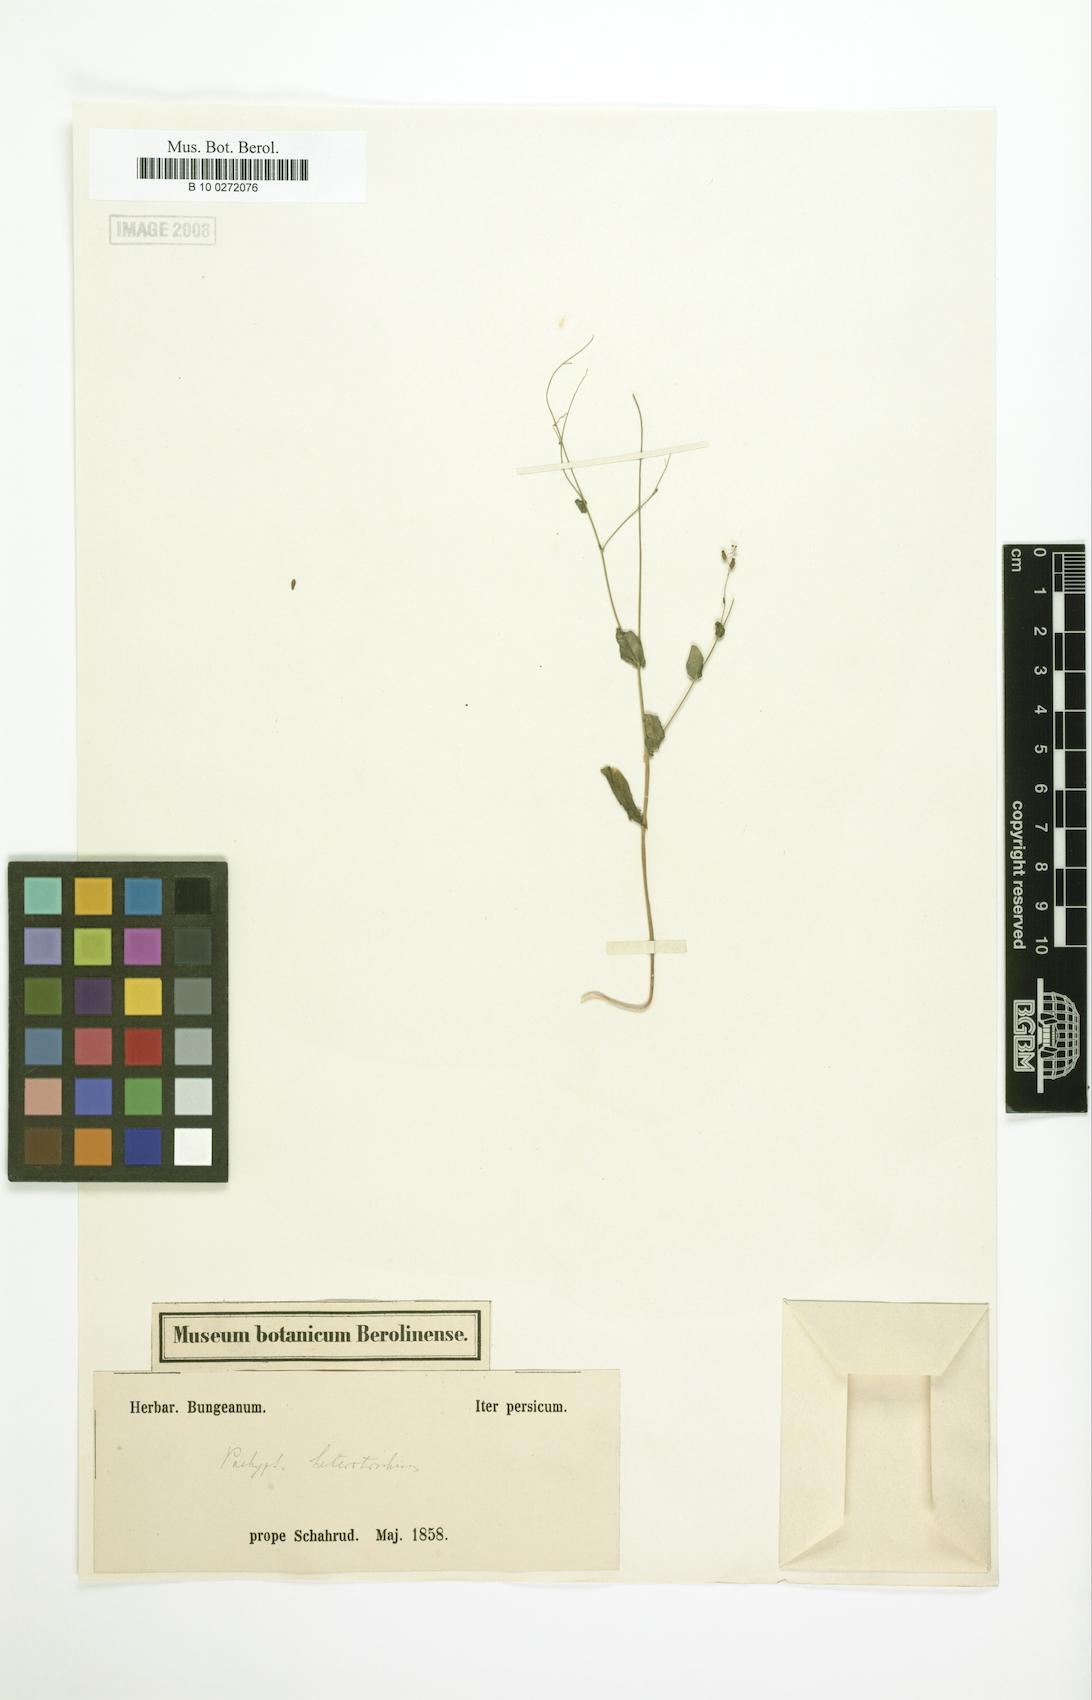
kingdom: Plantae
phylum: Tracheophyta
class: Magnoliopsida
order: Brassicales
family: Brassicaceae
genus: Isatis
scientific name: Isatis brevipes
